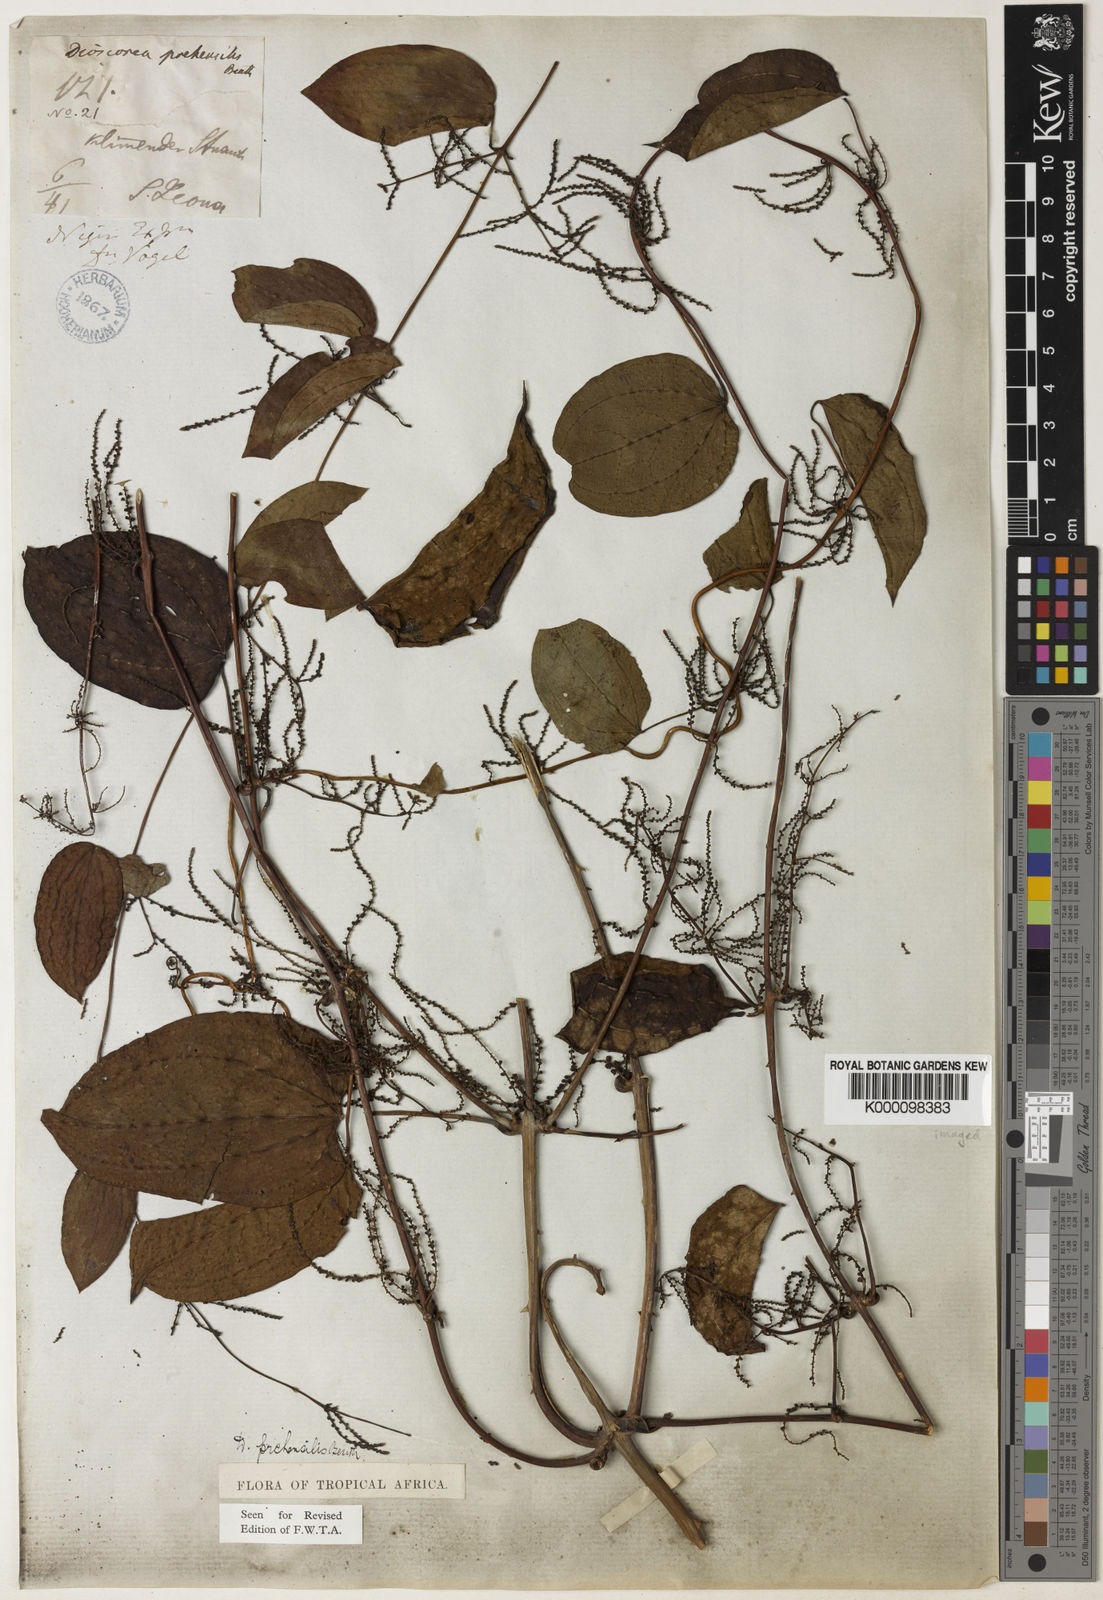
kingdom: Plantae
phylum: Tracheophyta
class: Liliopsida
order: Dioscoreales
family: Dioscoreaceae
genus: Dioscorea
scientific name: Dioscorea praehensilis
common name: Bush yam
